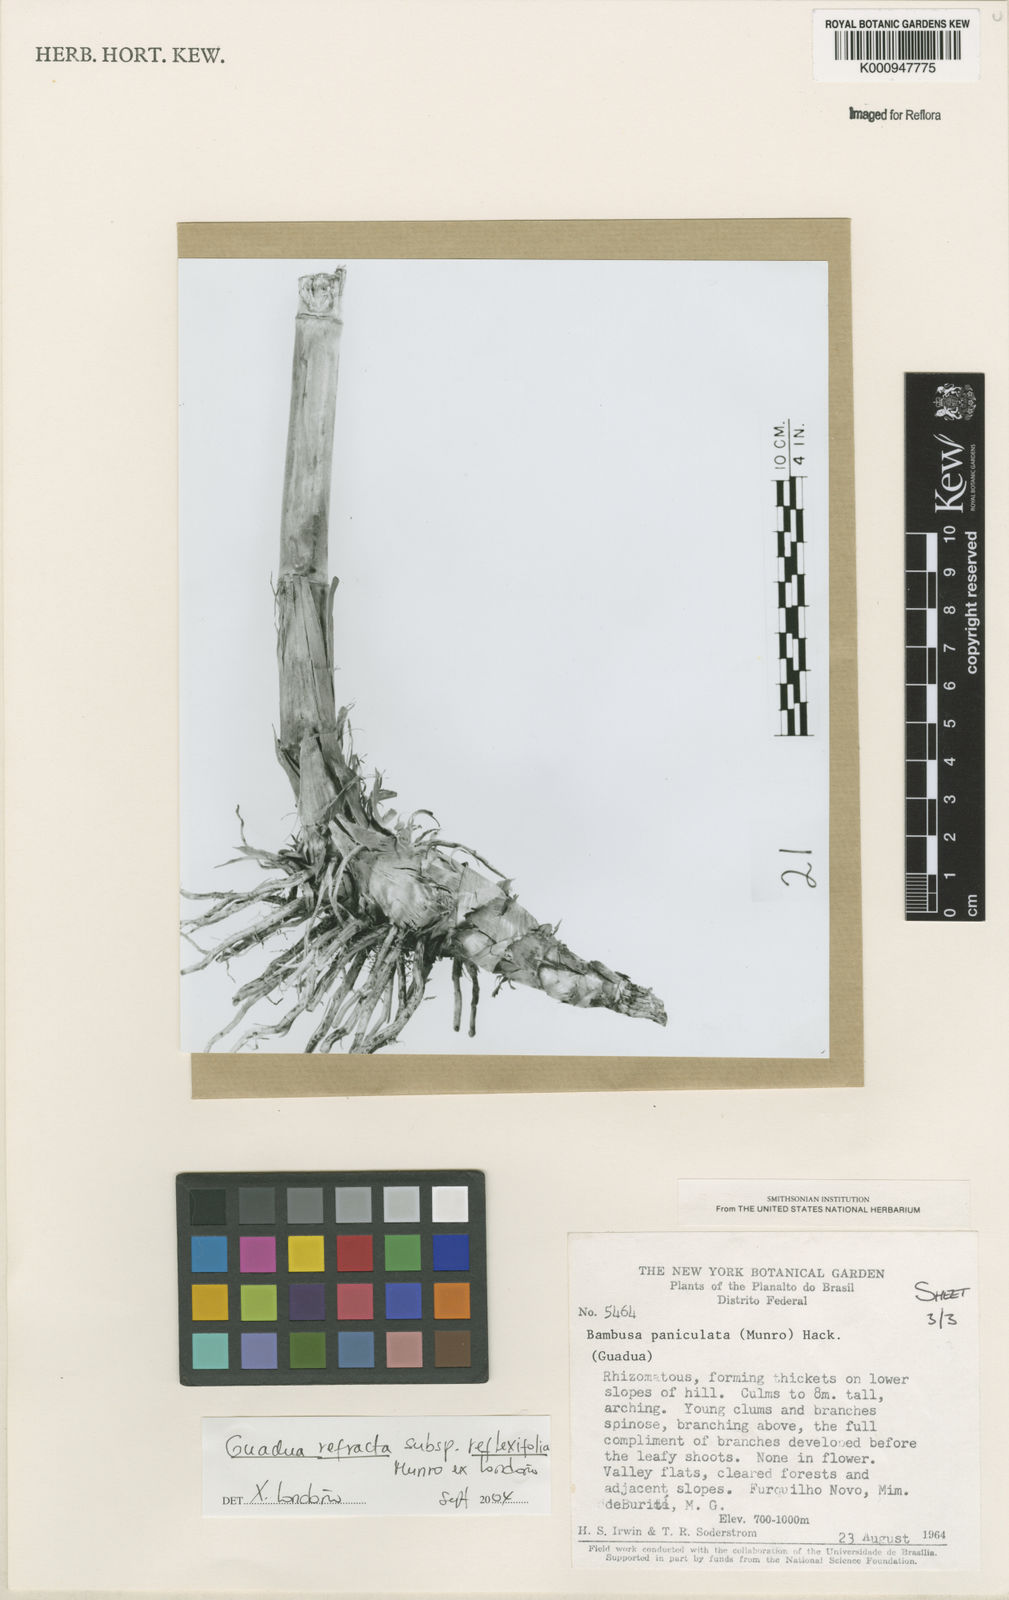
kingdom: Plantae
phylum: Tracheophyta
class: Liliopsida
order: Poales
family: Poaceae
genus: Guadua
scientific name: Guadua
